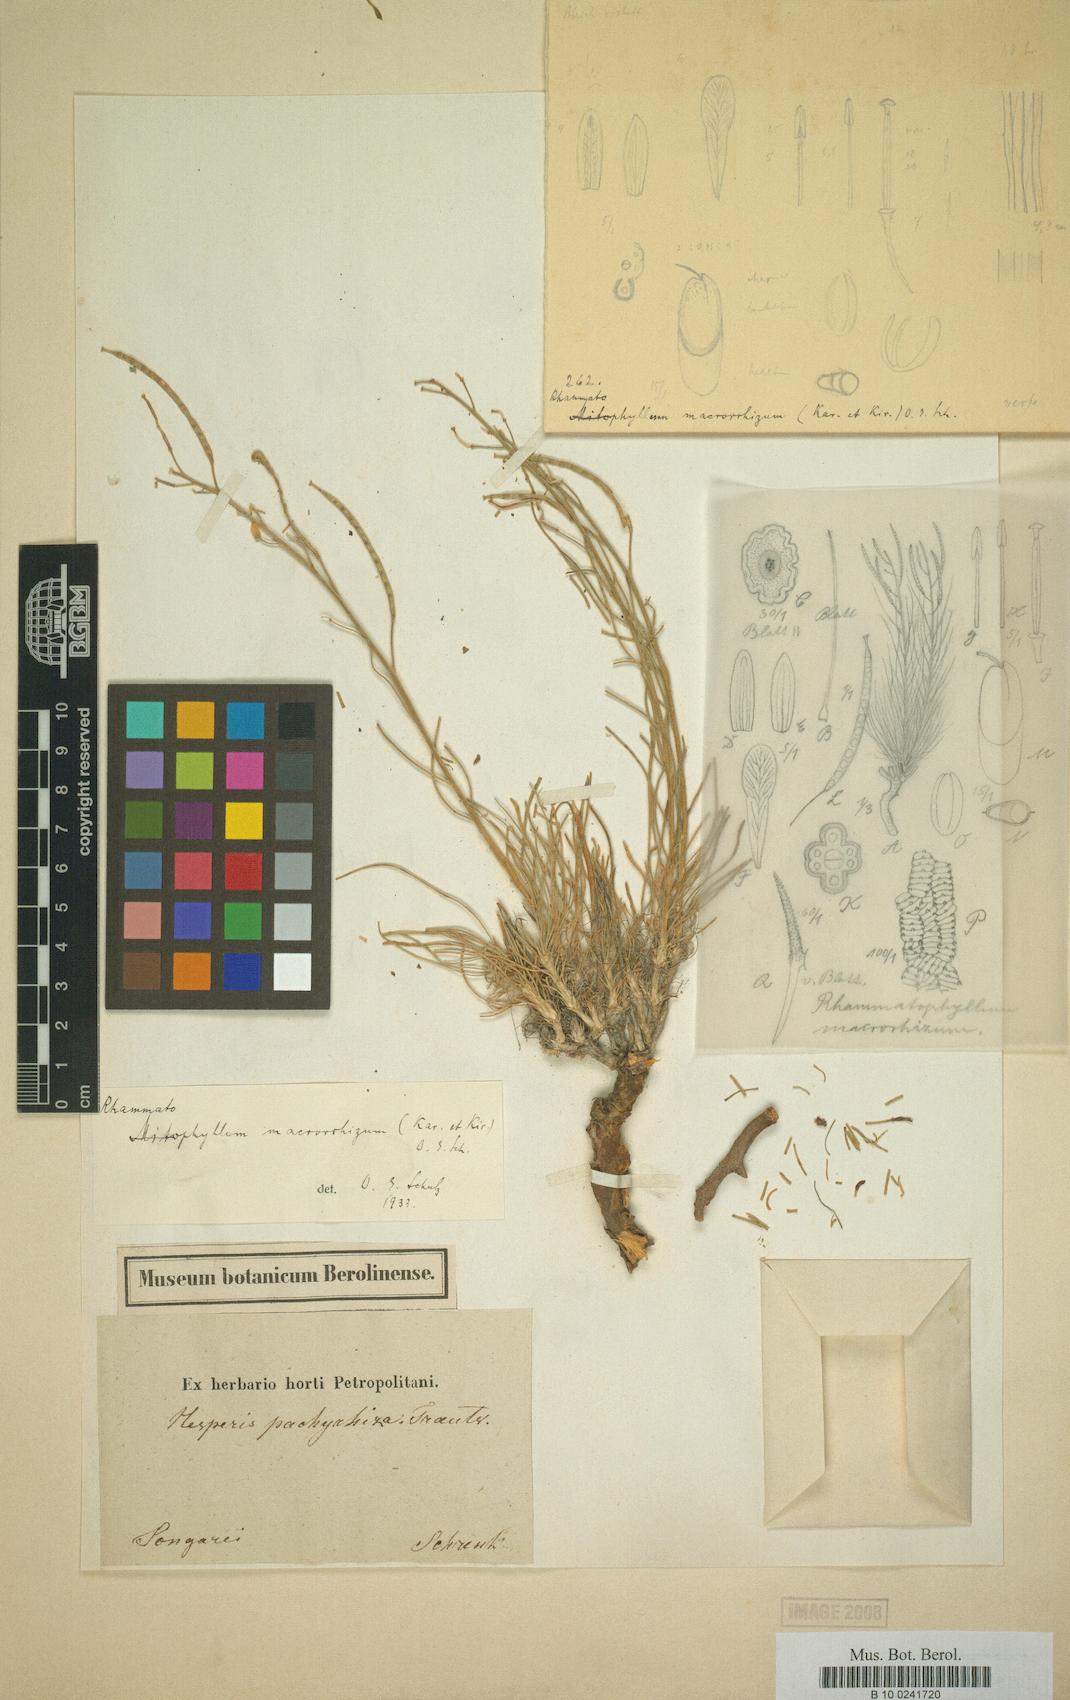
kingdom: Plantae
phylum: Tracheophyta
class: Magnoliopsida
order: Brassicales
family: Brassicaceae
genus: Rhammatophyllum
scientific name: Rhammatophyllum
